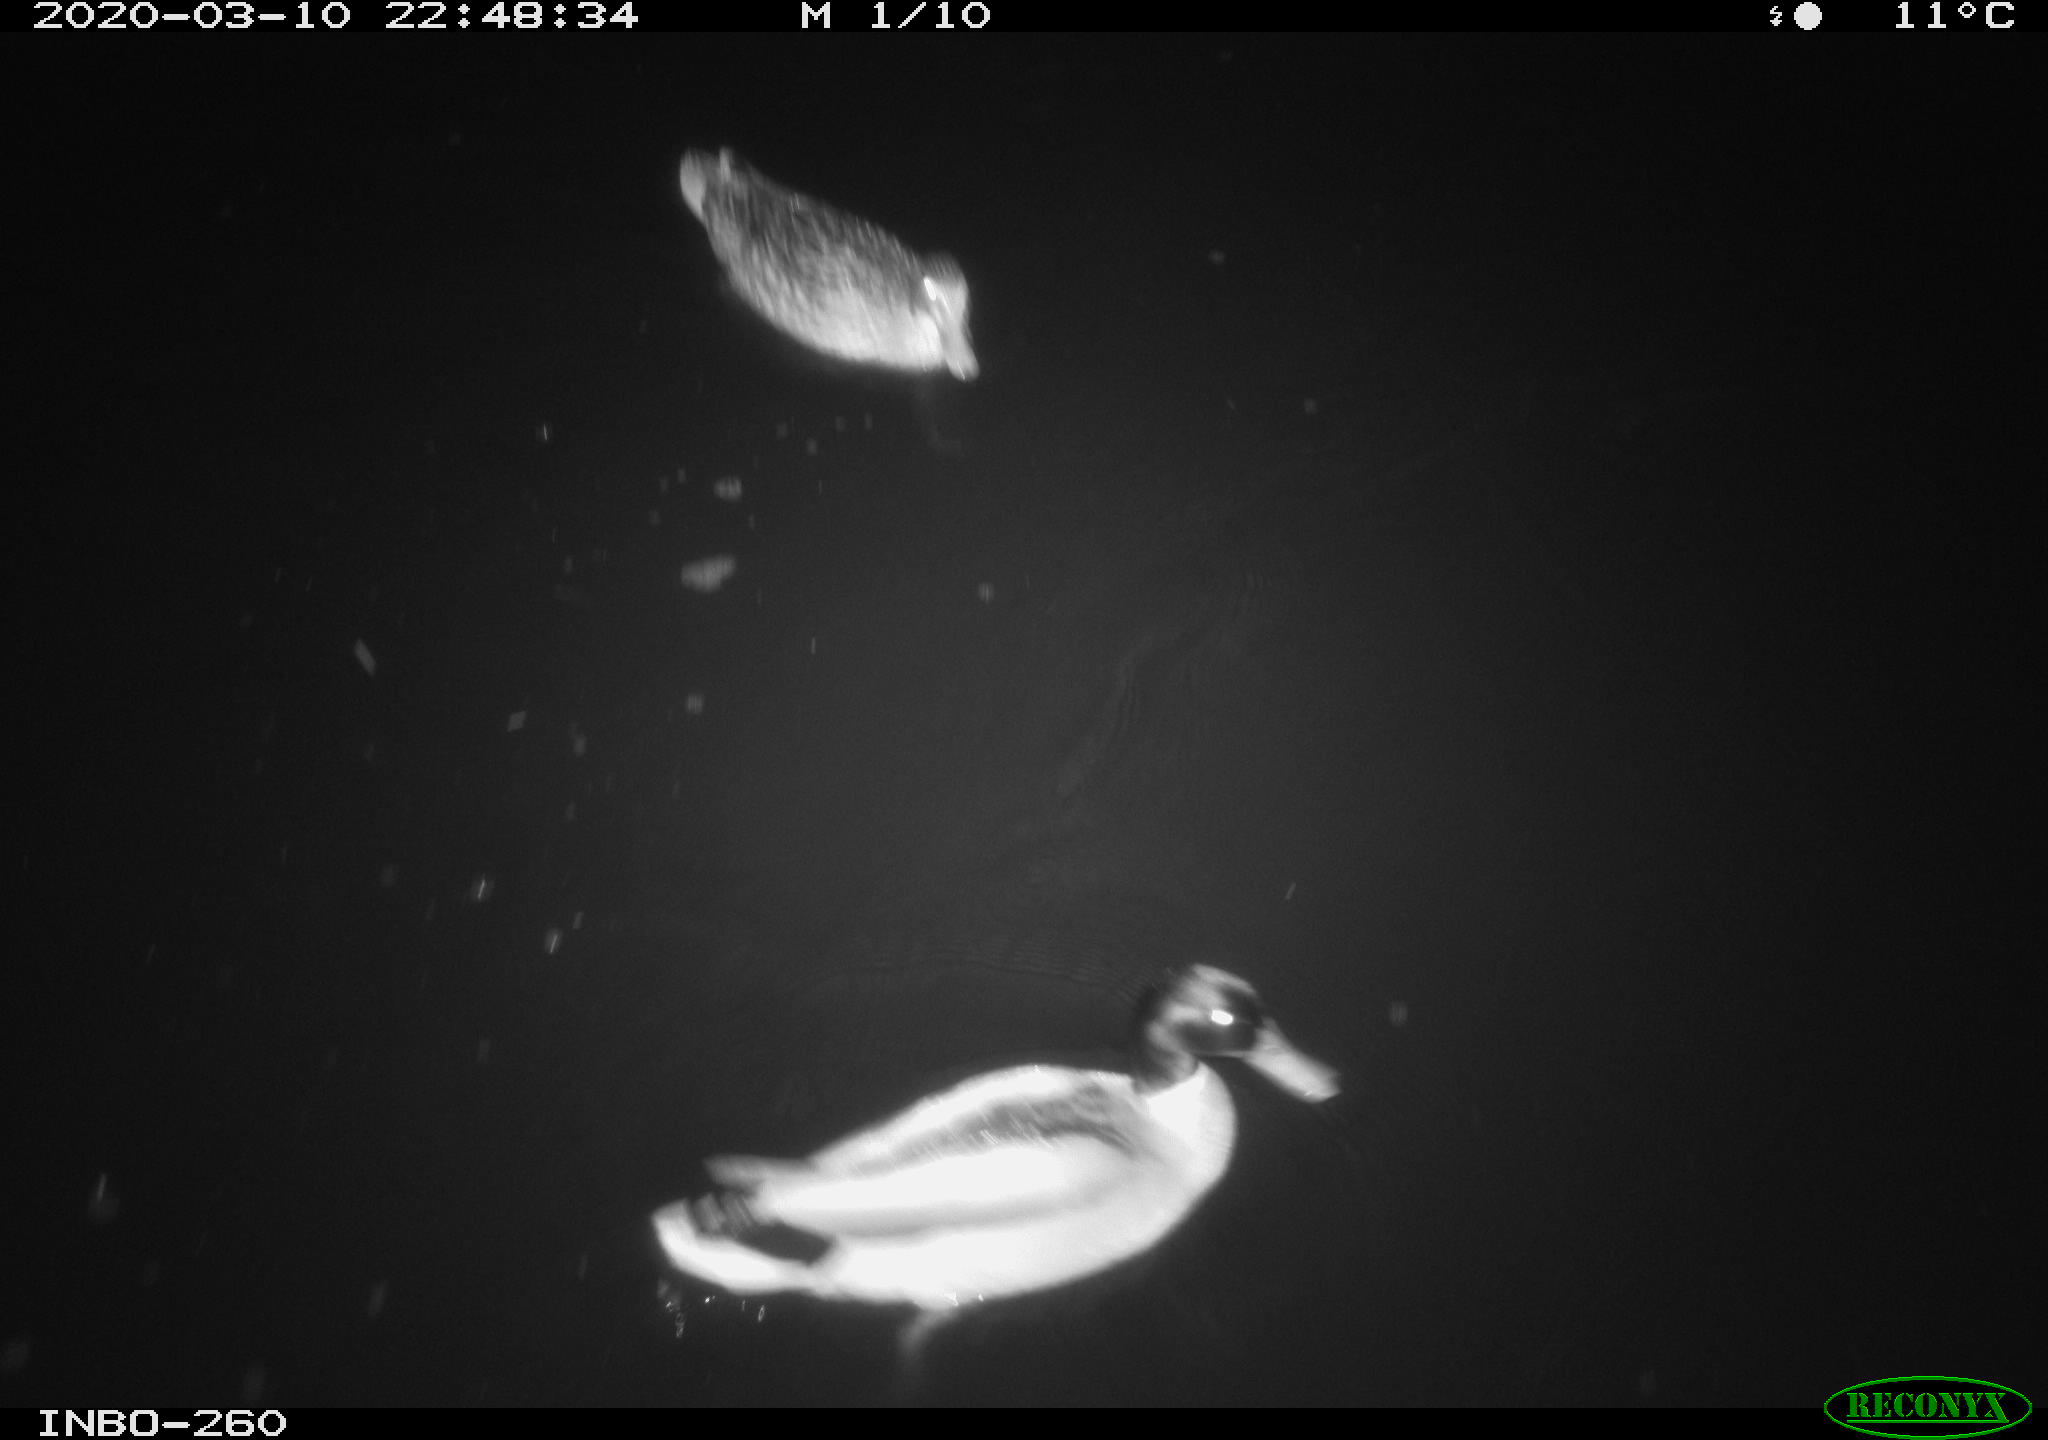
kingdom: Animalia
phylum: Chordata
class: Aves
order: Anseriformes
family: Anatidae
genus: Anas
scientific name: Anas platyrhynchos
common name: Mallard
